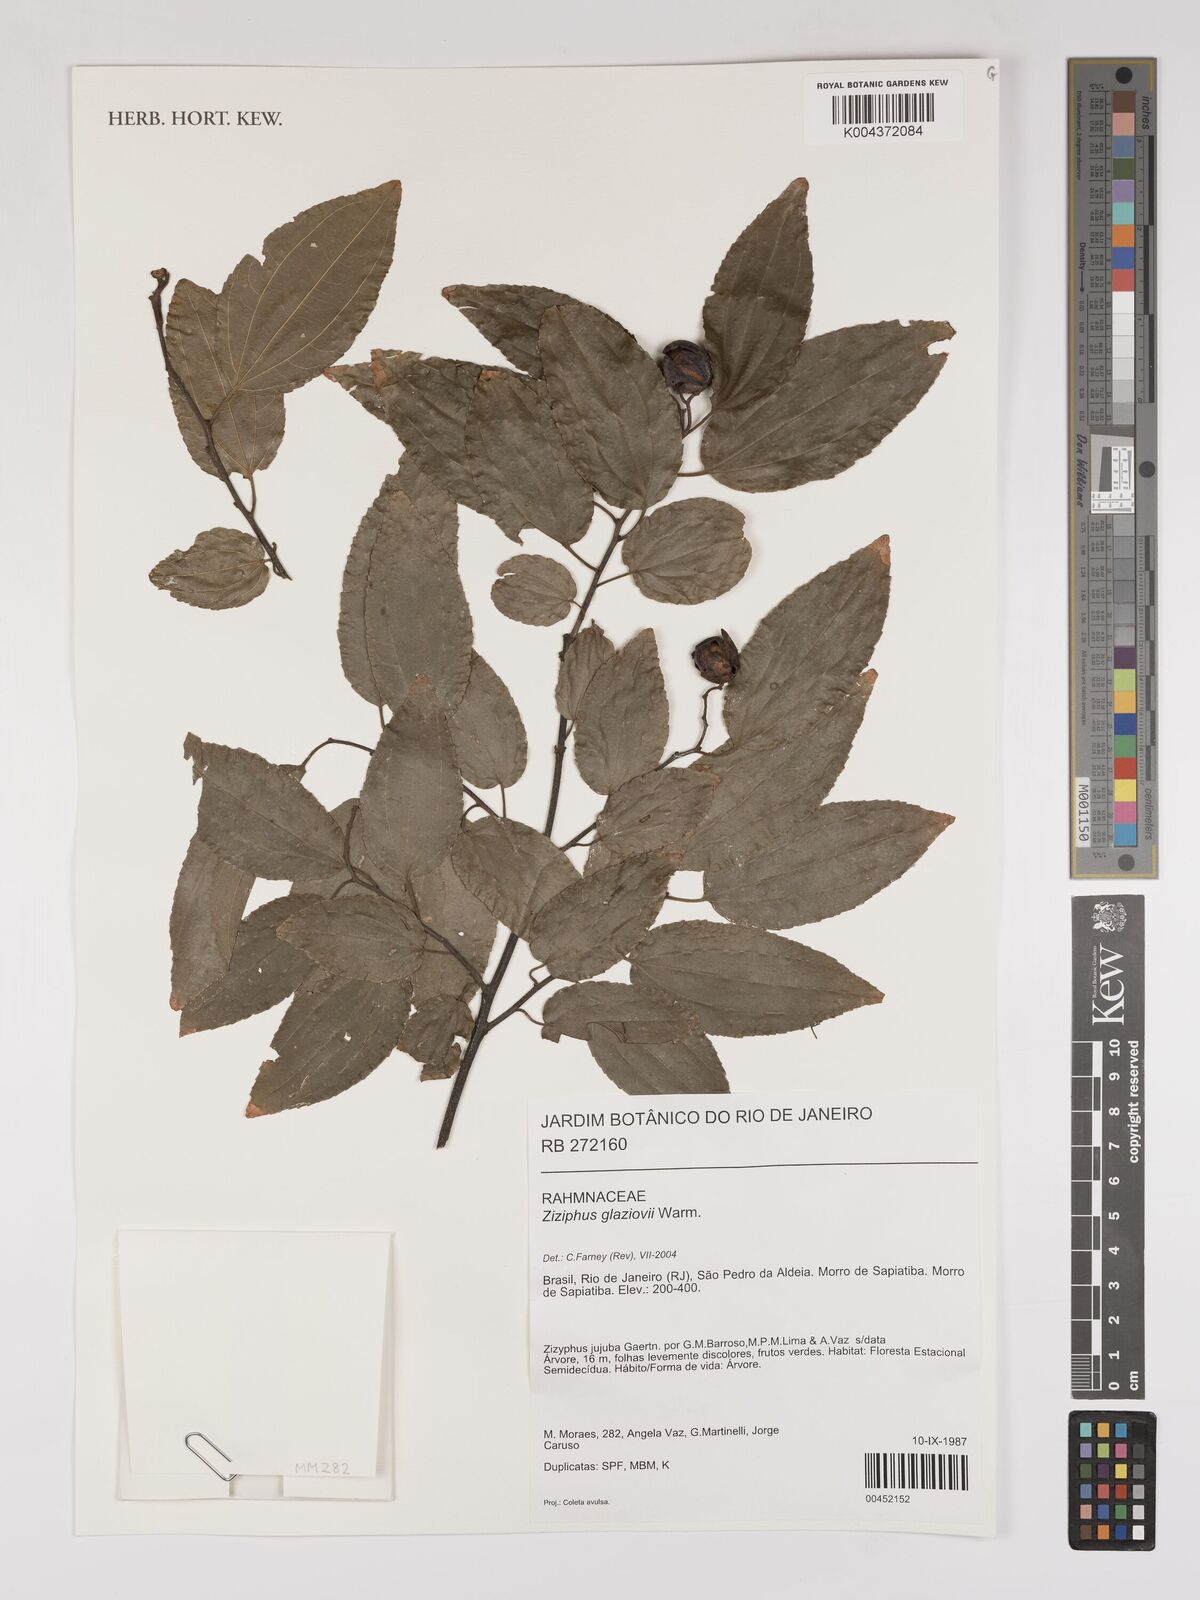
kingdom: Plantae
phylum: Tracheophyta
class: Magnoliopsida
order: Rosales
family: Rhamnaceae
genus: Sarcomphalus
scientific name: Sarcomphalus glaziovii
